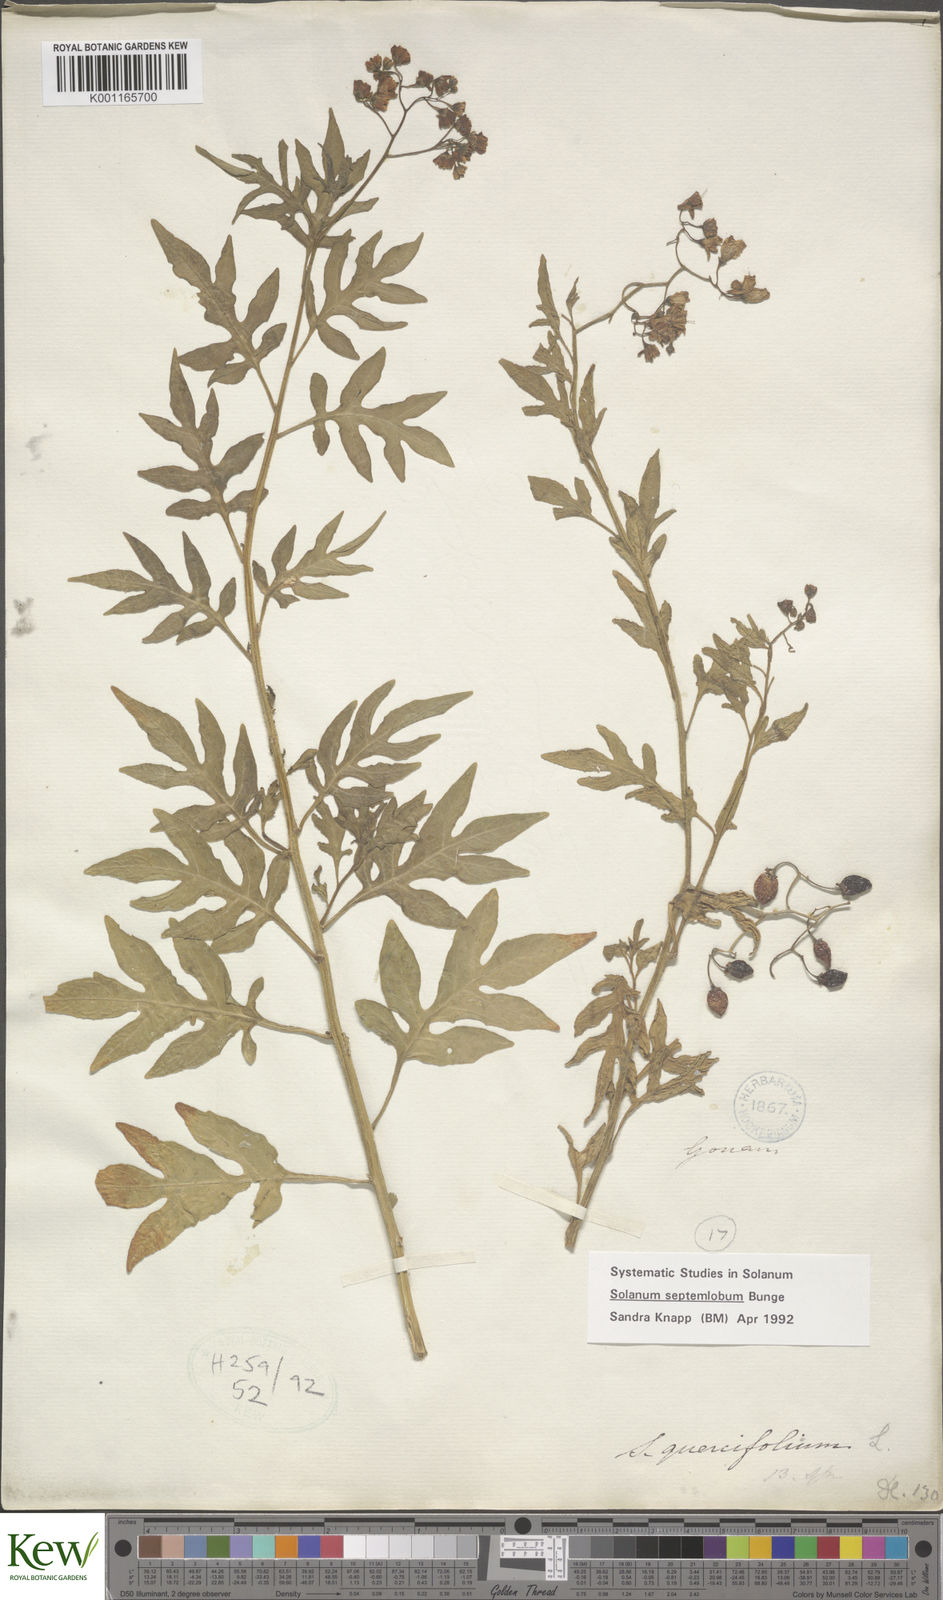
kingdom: Plantae
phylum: Tracheophyta
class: Magnoliopsida
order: Solanales
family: Solanaceae
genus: Solanum
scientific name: Solanum septemlobum
